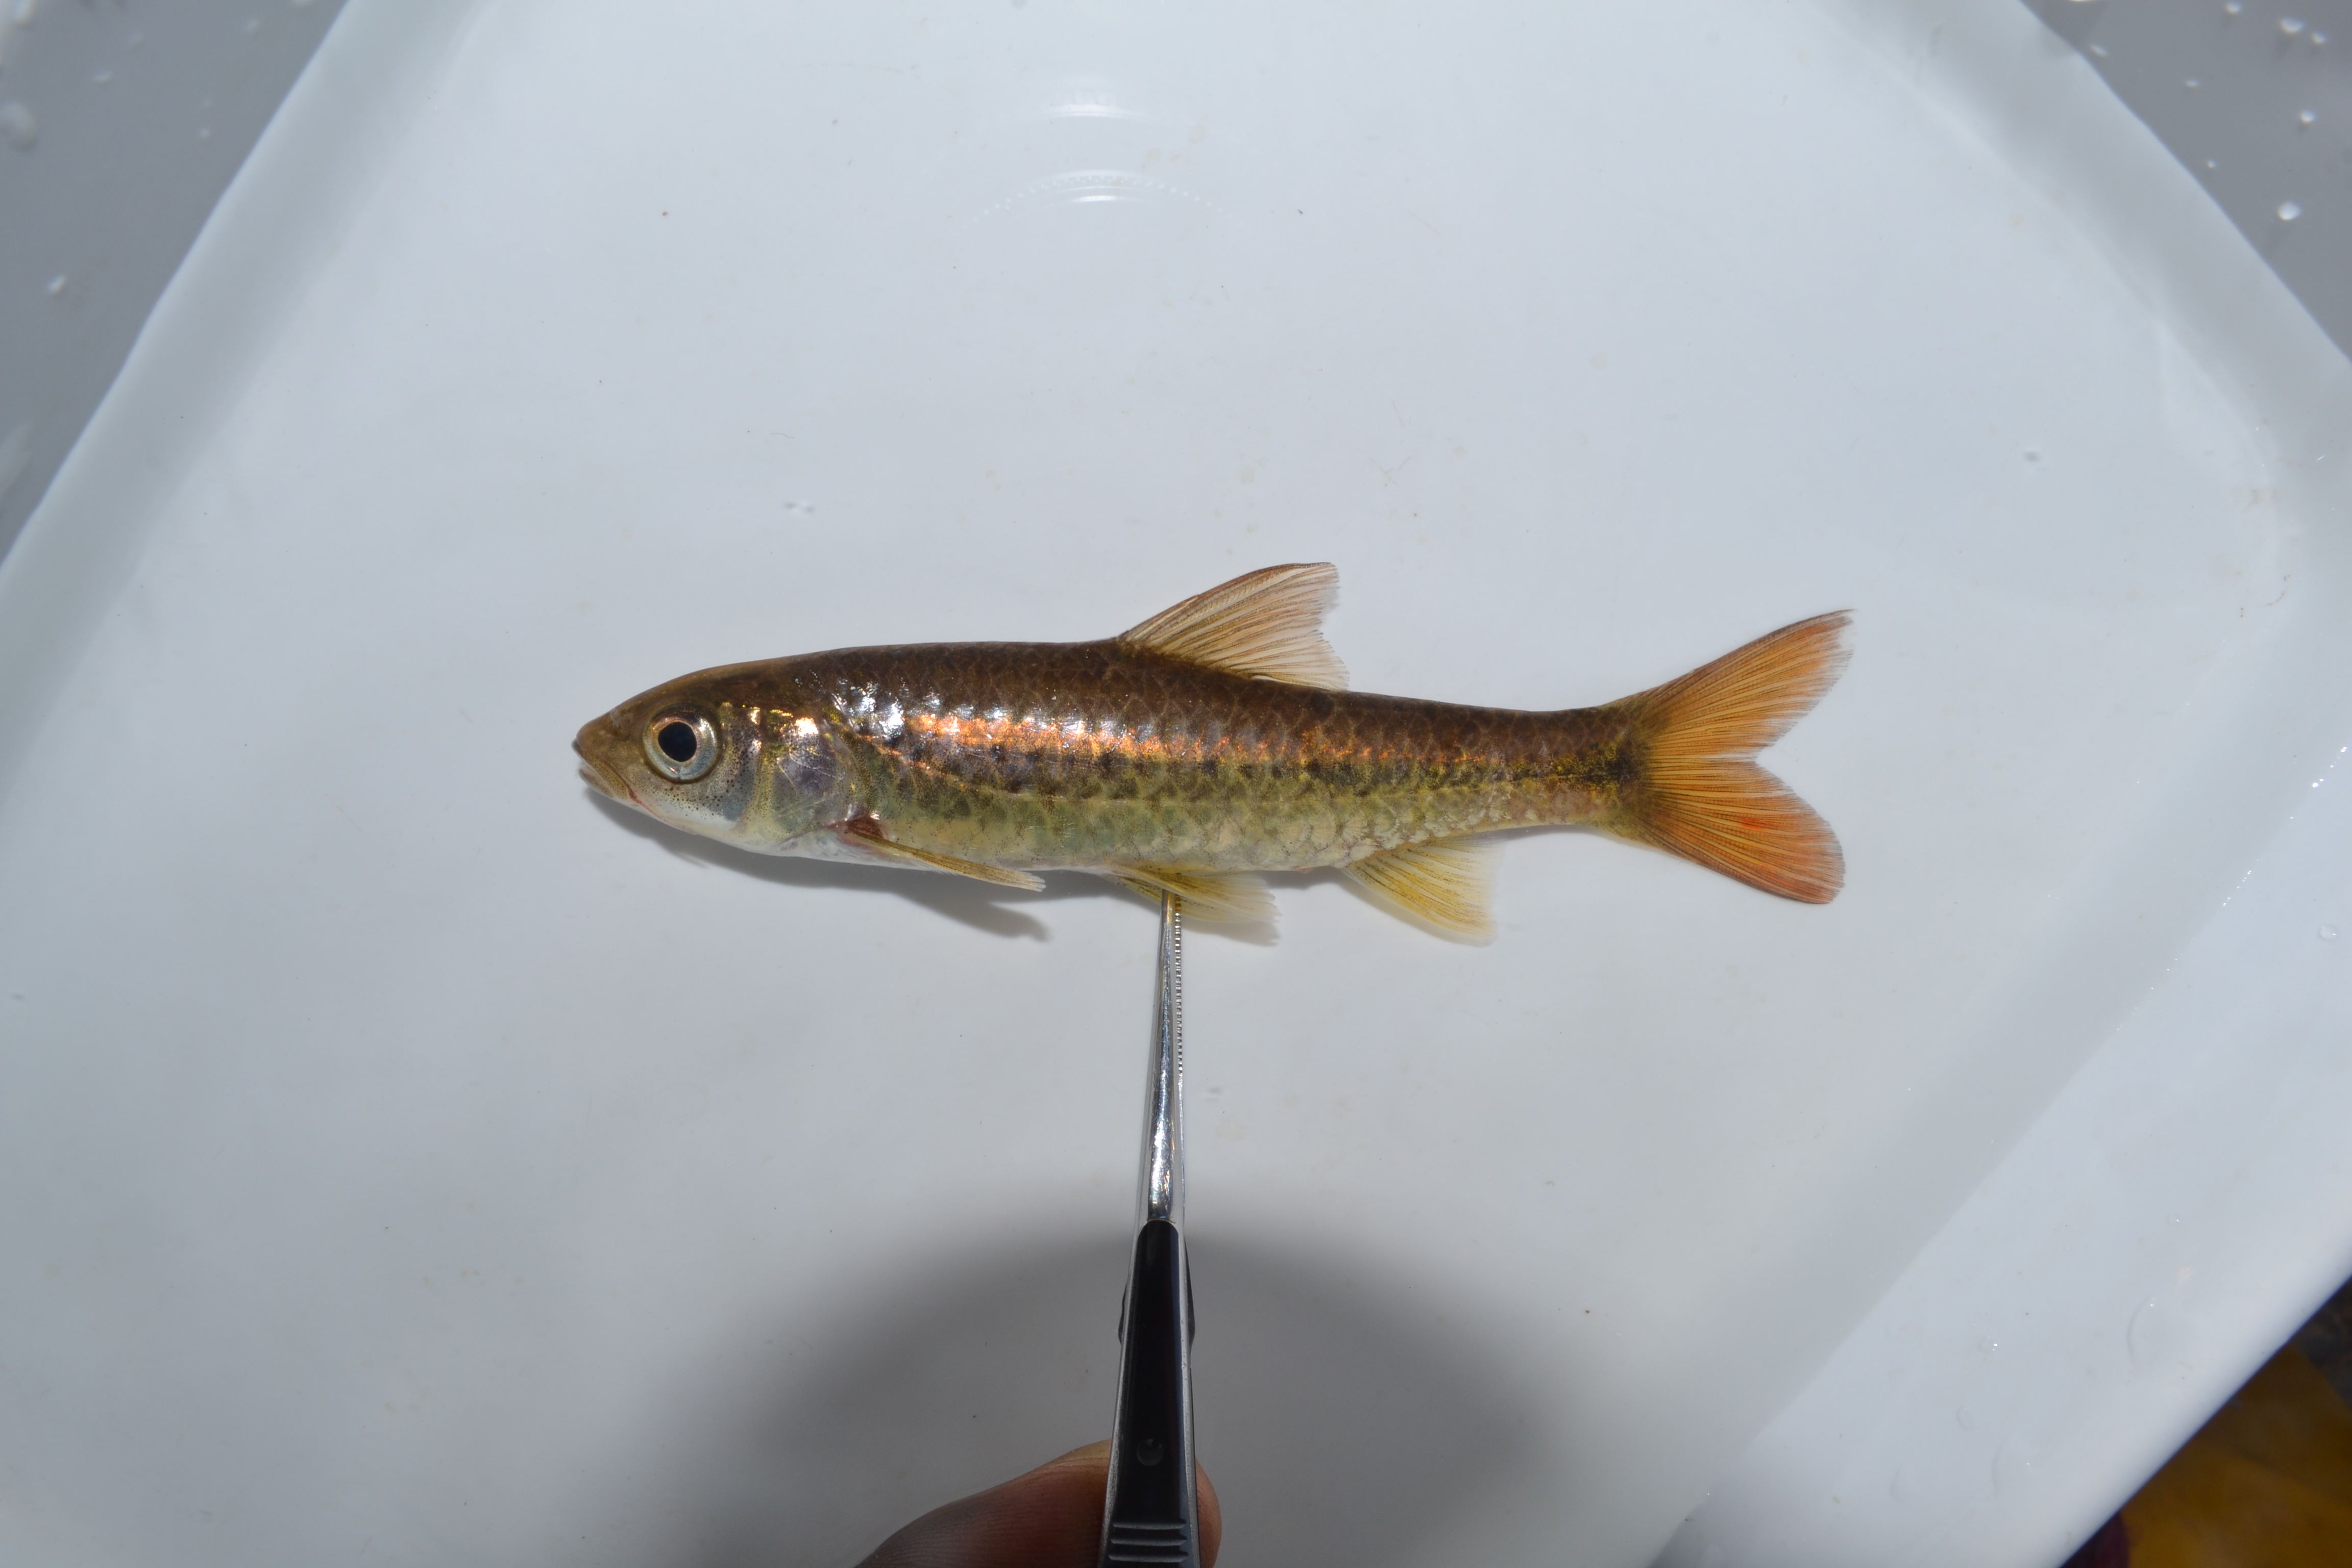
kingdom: Animalia
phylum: Chordata
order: Cypriniformes
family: Cyprinidae
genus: Barbus
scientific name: Barbus
